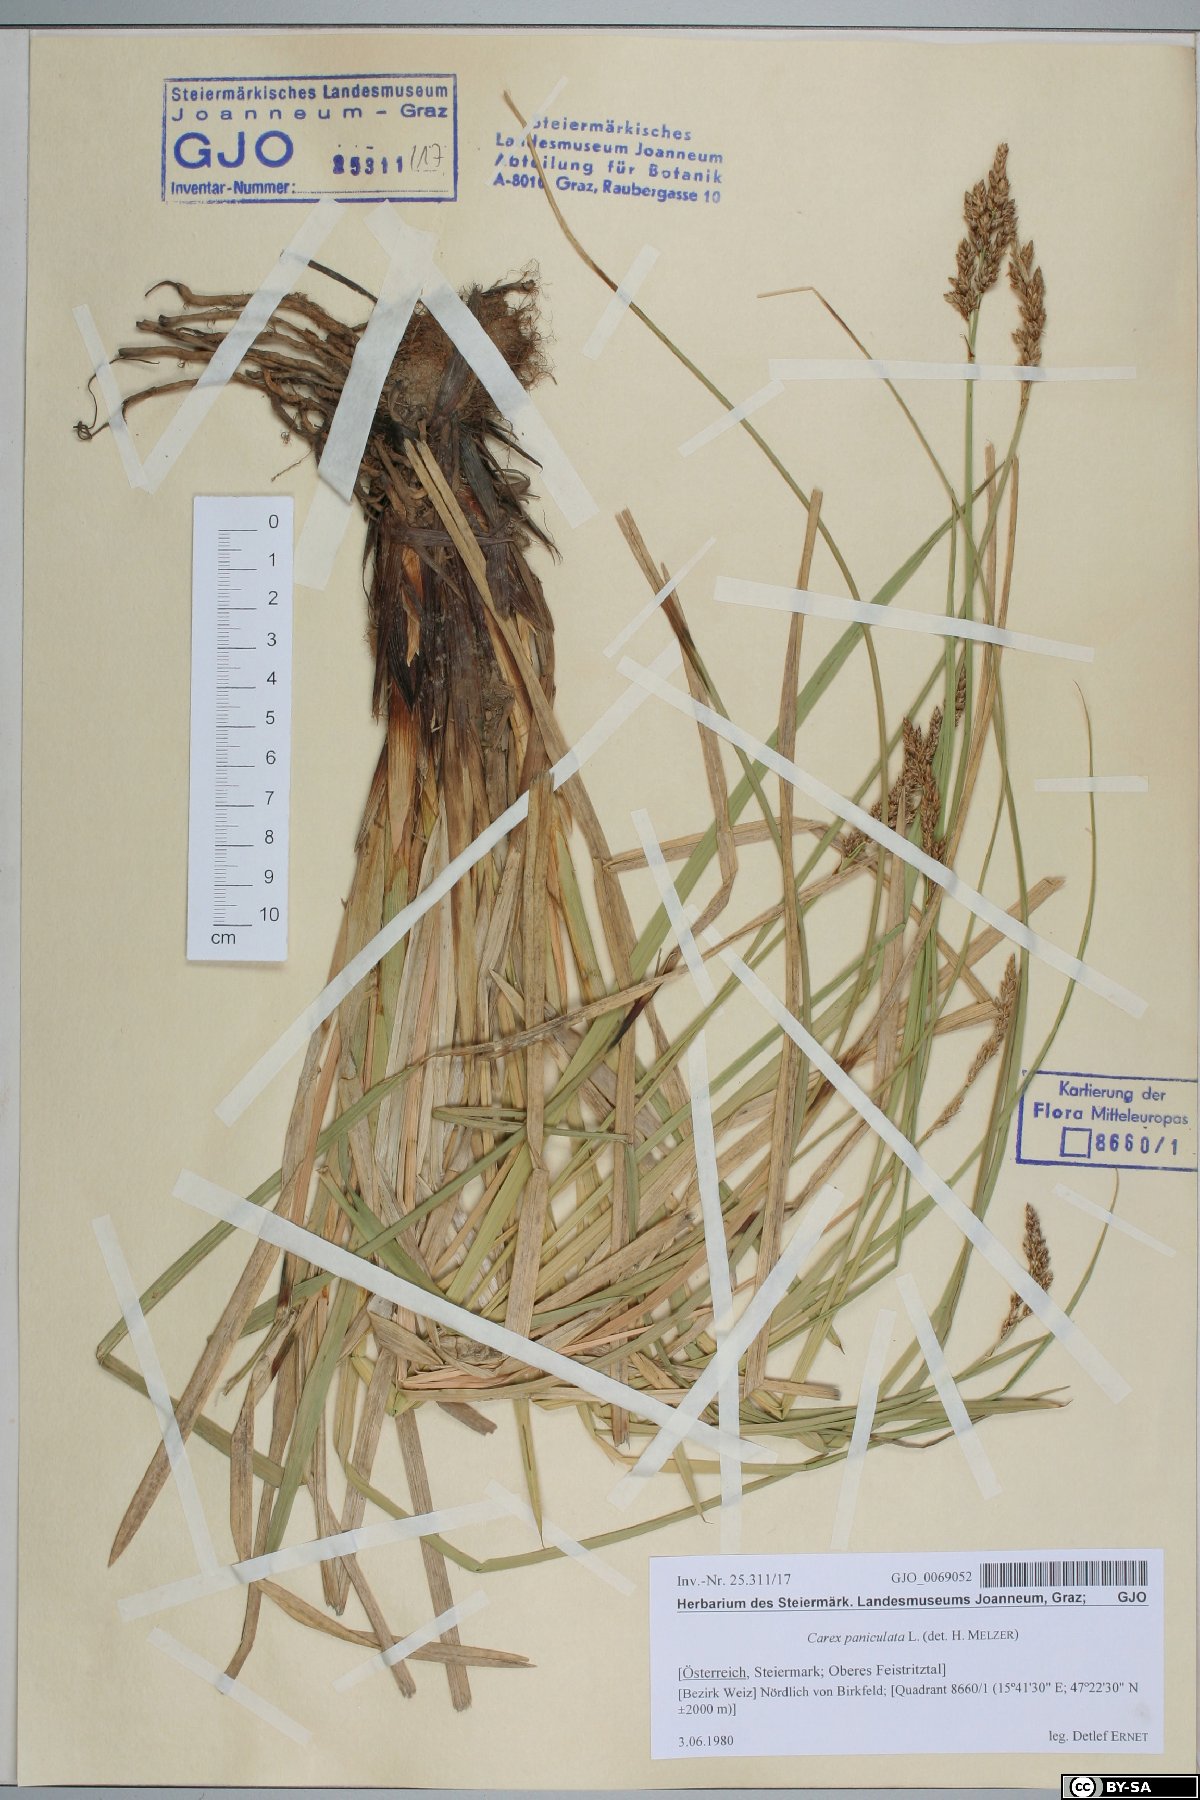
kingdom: Plantae
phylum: Tracheophyta
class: Liliopsida
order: Poales
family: Cyperaceae
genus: Carex
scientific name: Carex paniculata
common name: Greater tussock-sedge
